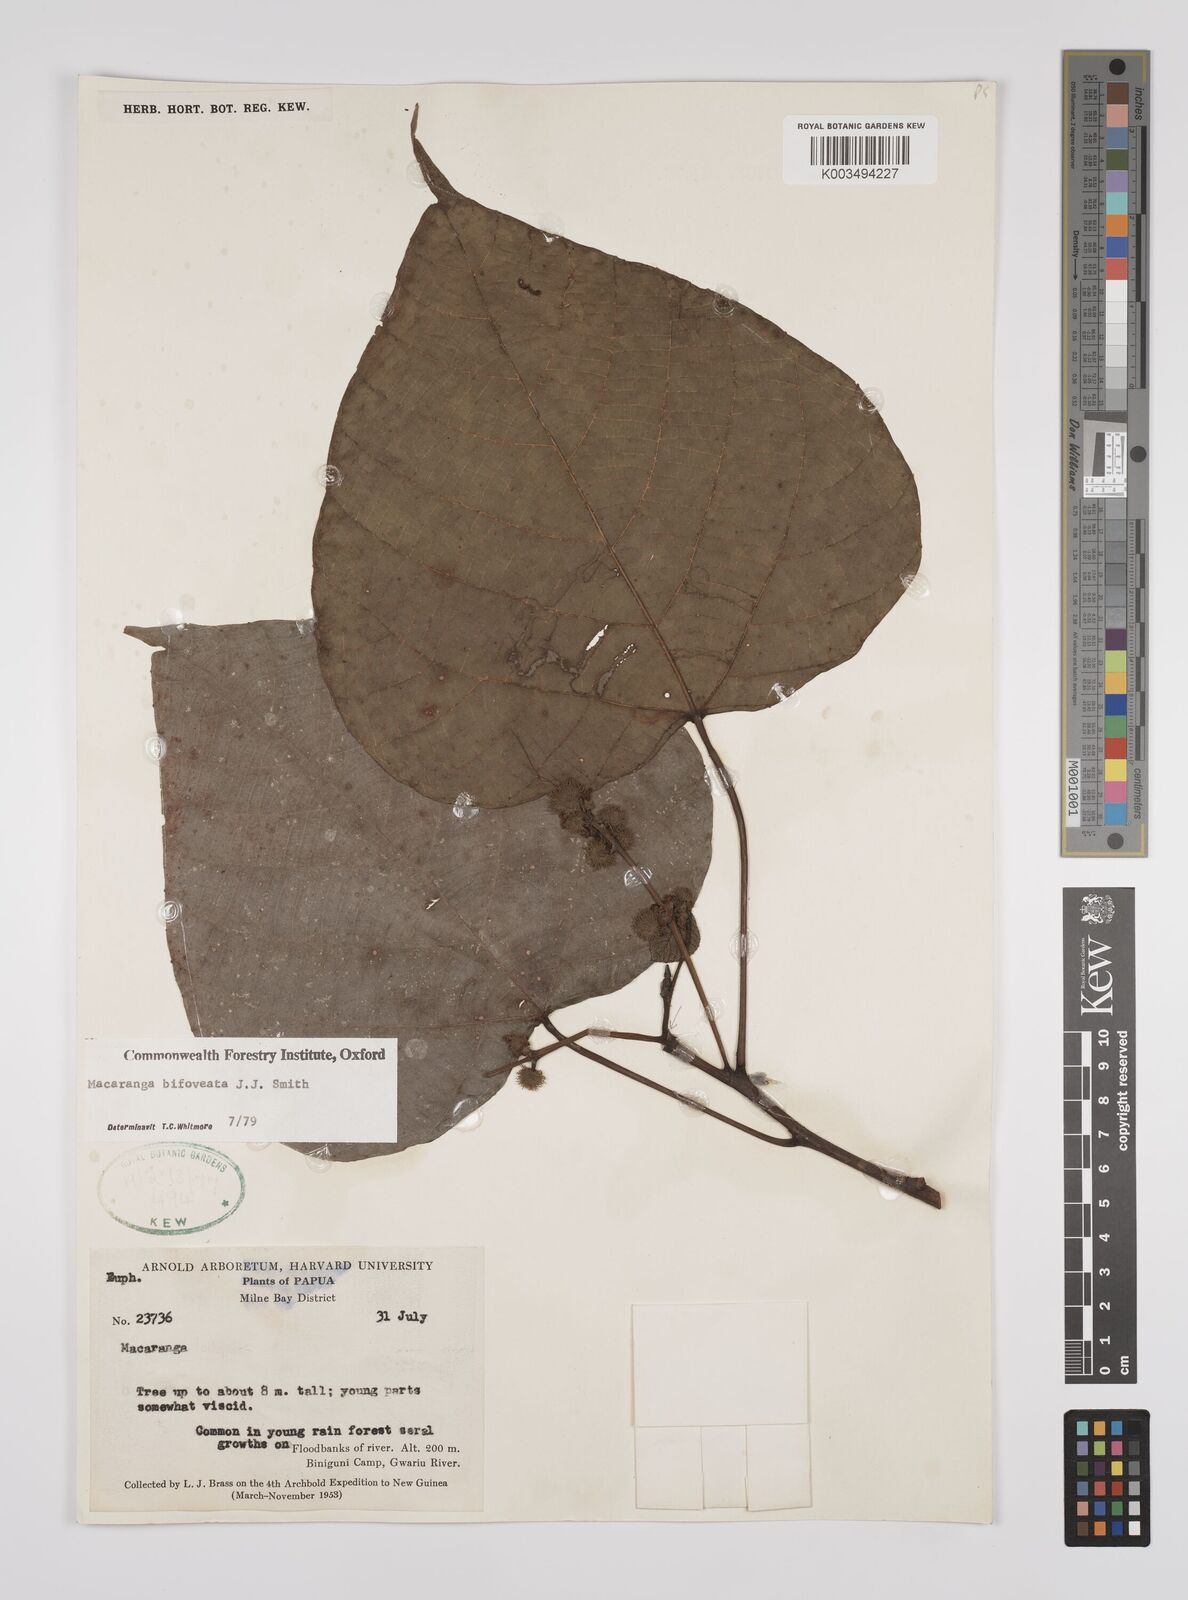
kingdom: Plantae
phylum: Tracheophyta
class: Magnoliopsida
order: Malpighiales
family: Euphorbiaceae
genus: Macaranga
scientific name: Macaranga bifoveata
